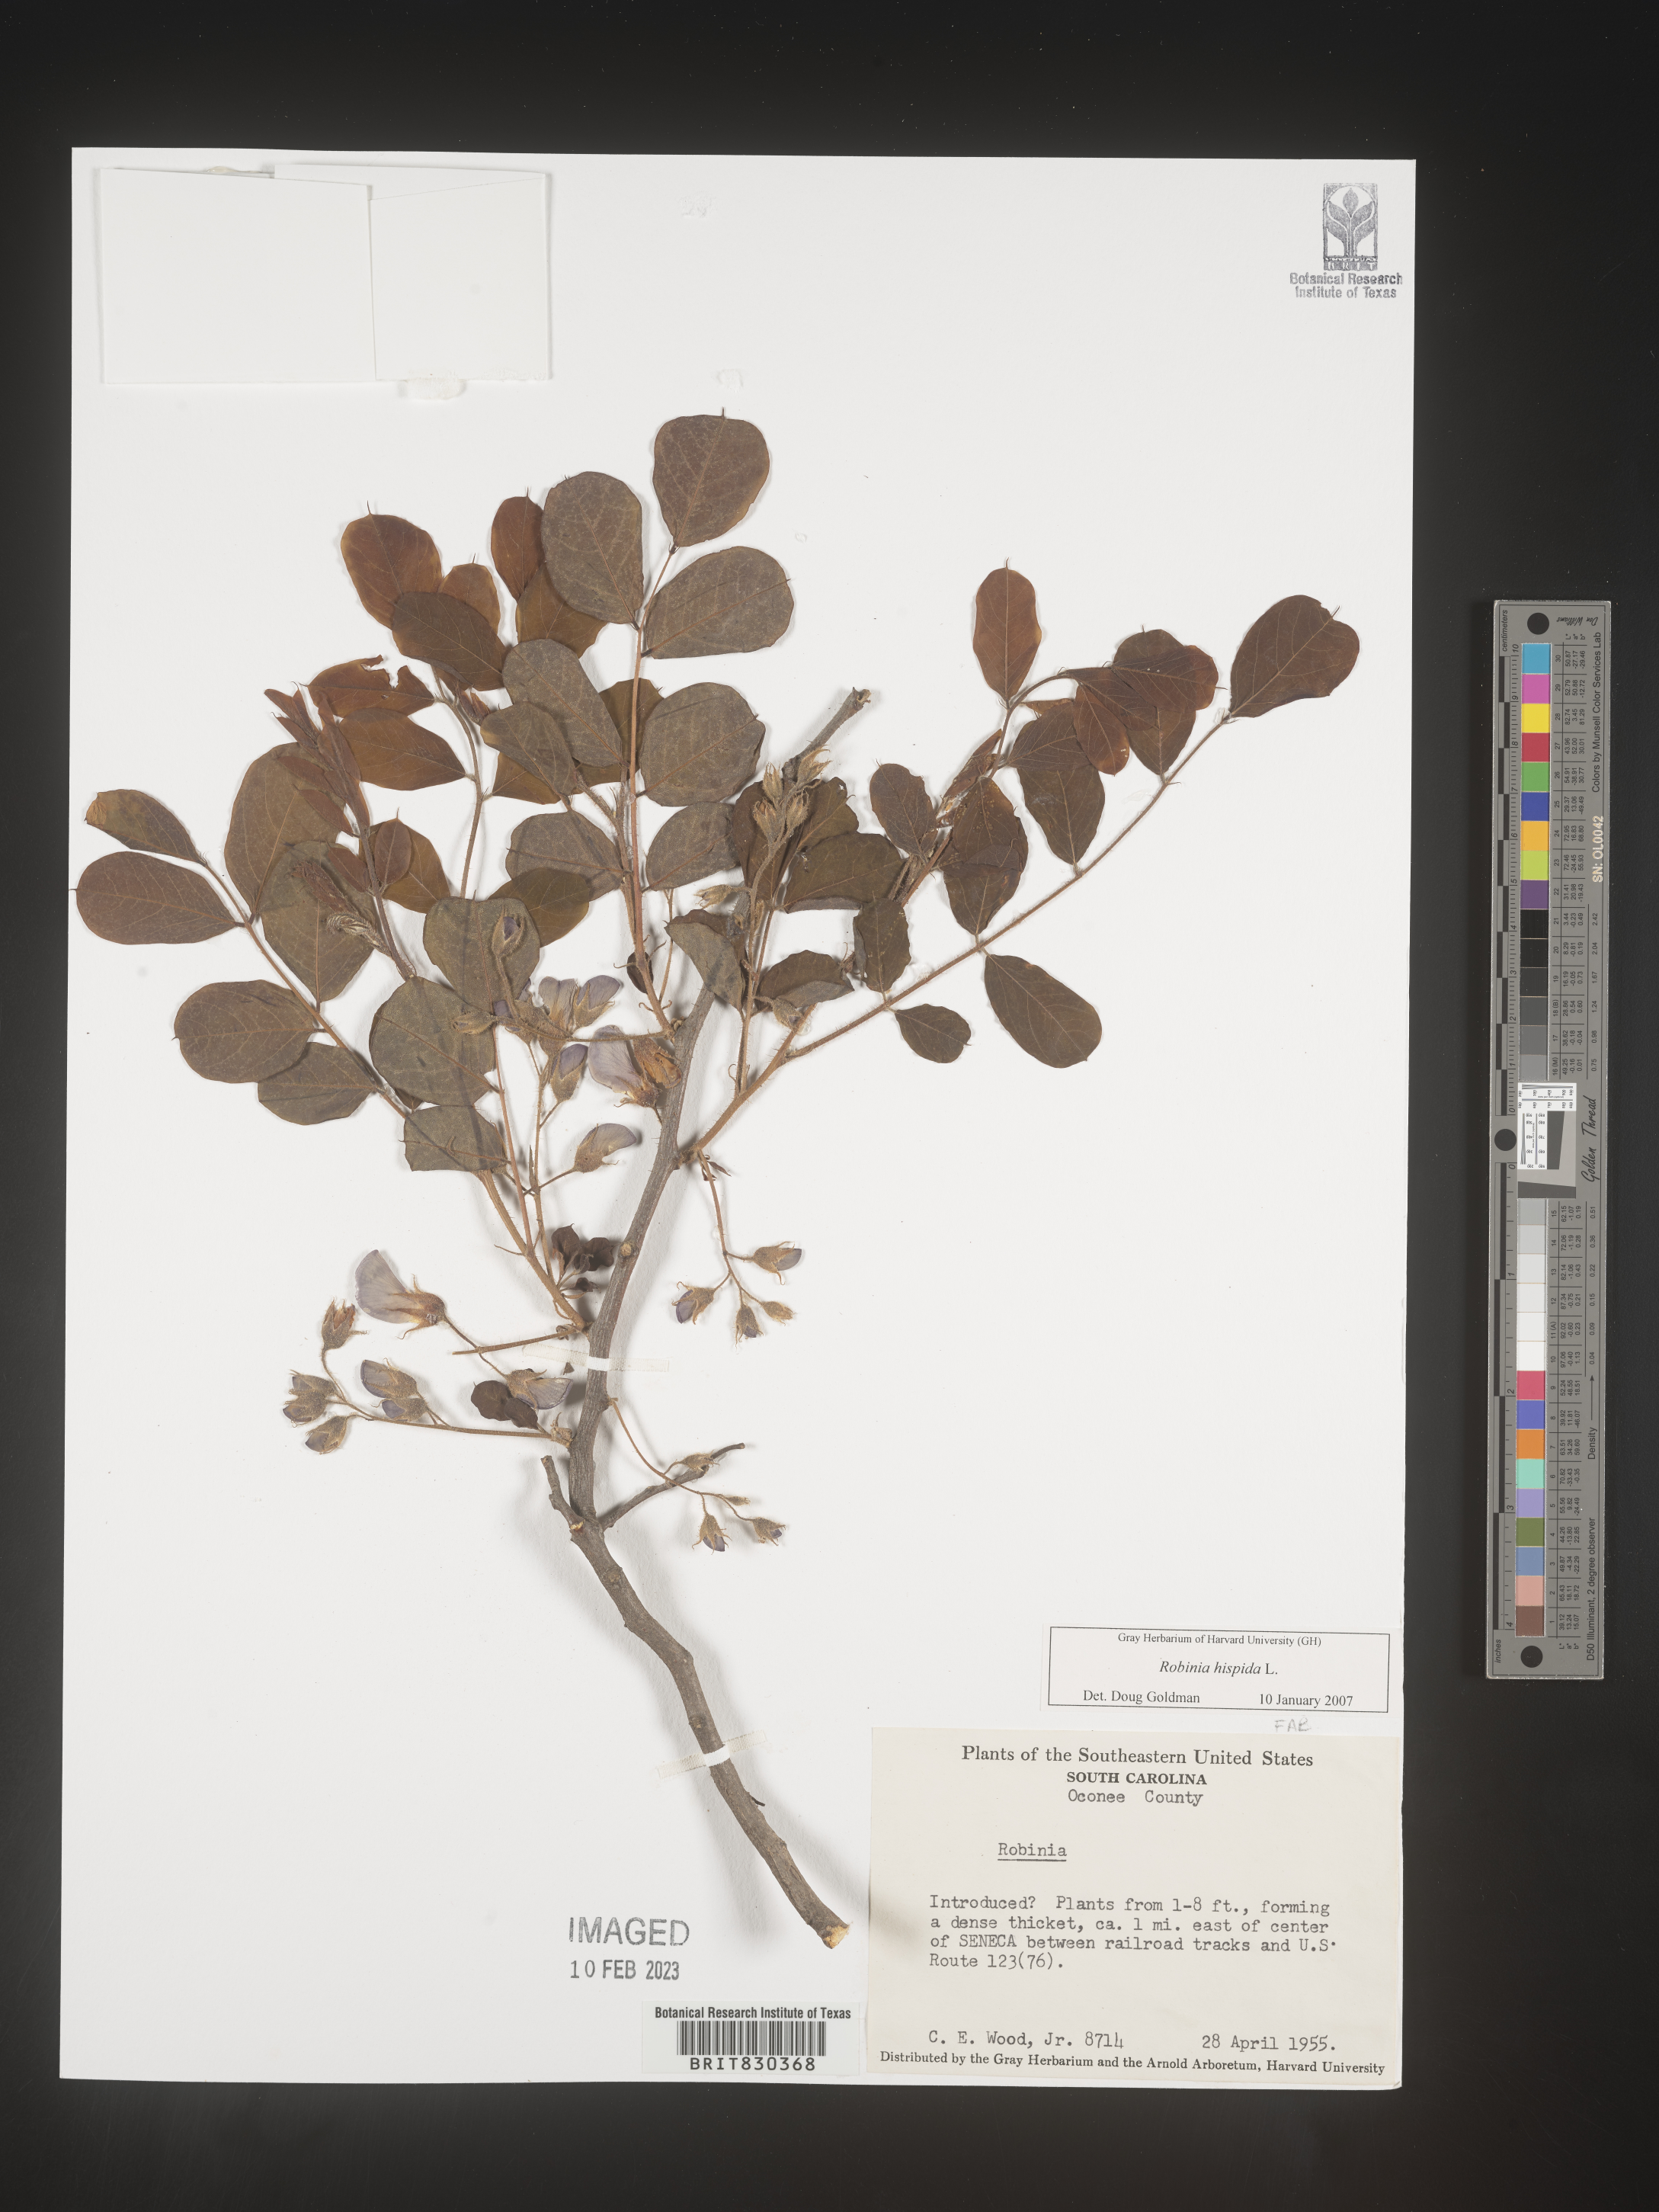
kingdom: Plantae
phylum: Tracheophyta
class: Magnoliopsida
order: Fabales
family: Fabaceae
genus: Robinia
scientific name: Robinia hispida
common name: Bristly locust
